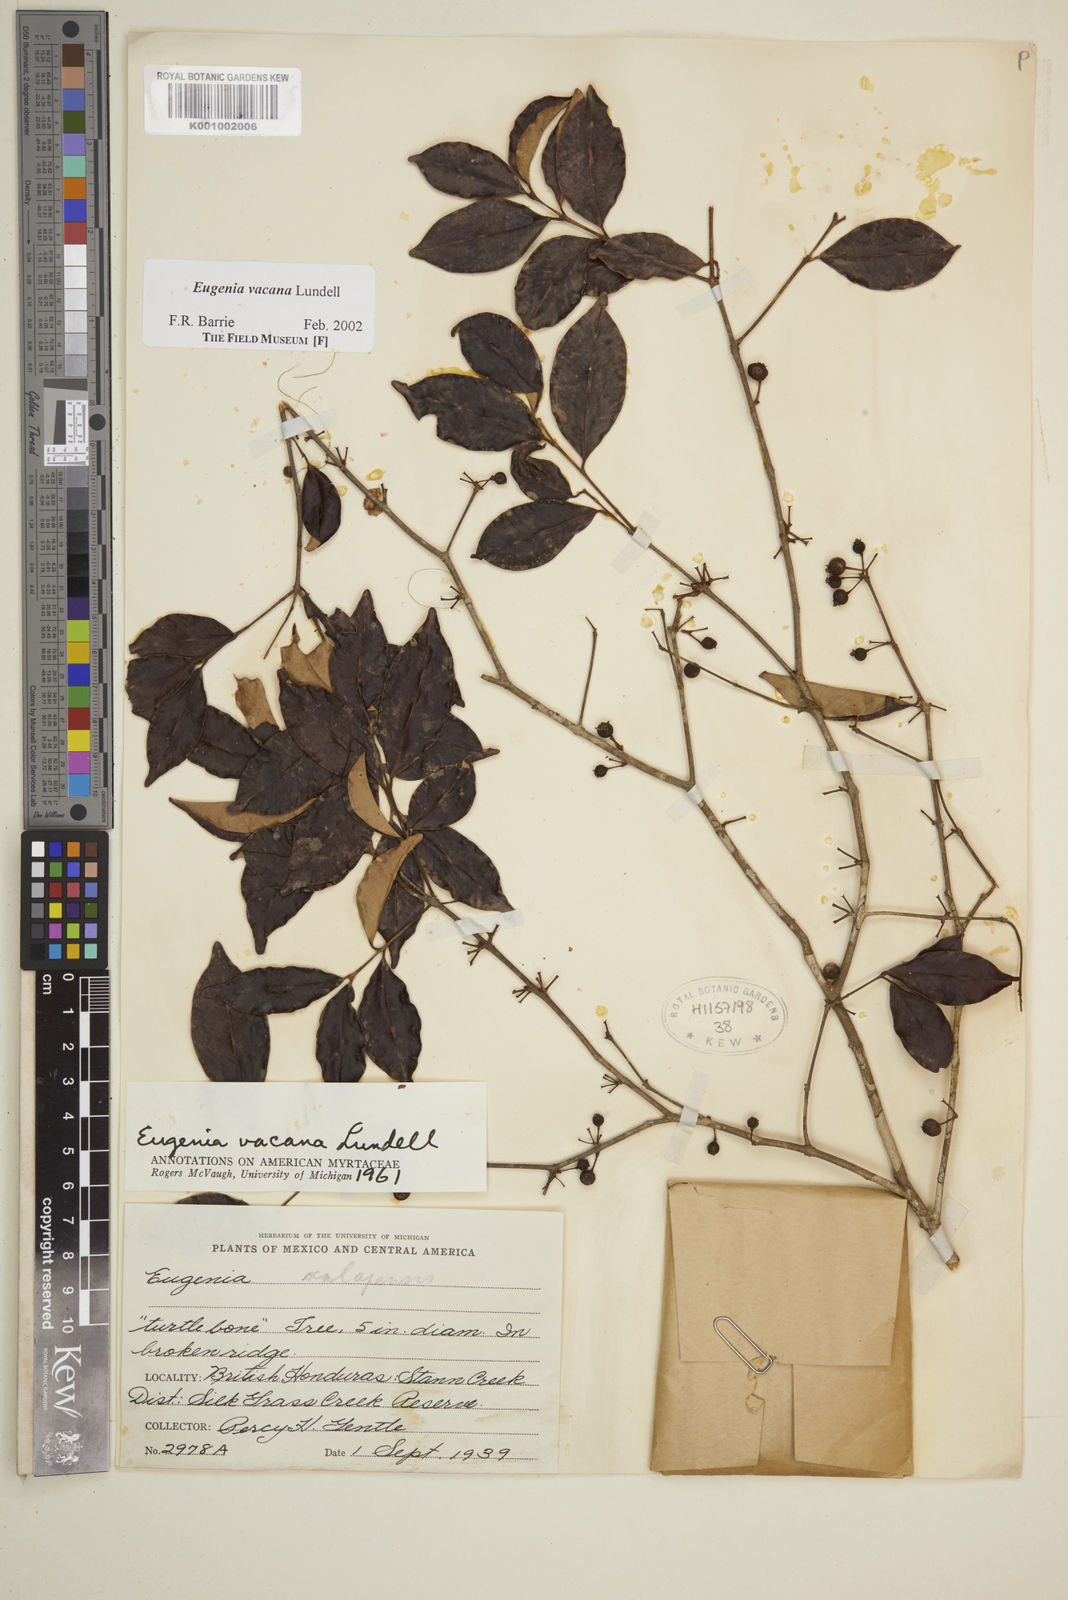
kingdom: Plantae
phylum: Tracheophyta
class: Magnoliopsida
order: Myrtales
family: Myrtaceae
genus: Eugenia
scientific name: Eugenia vacana
